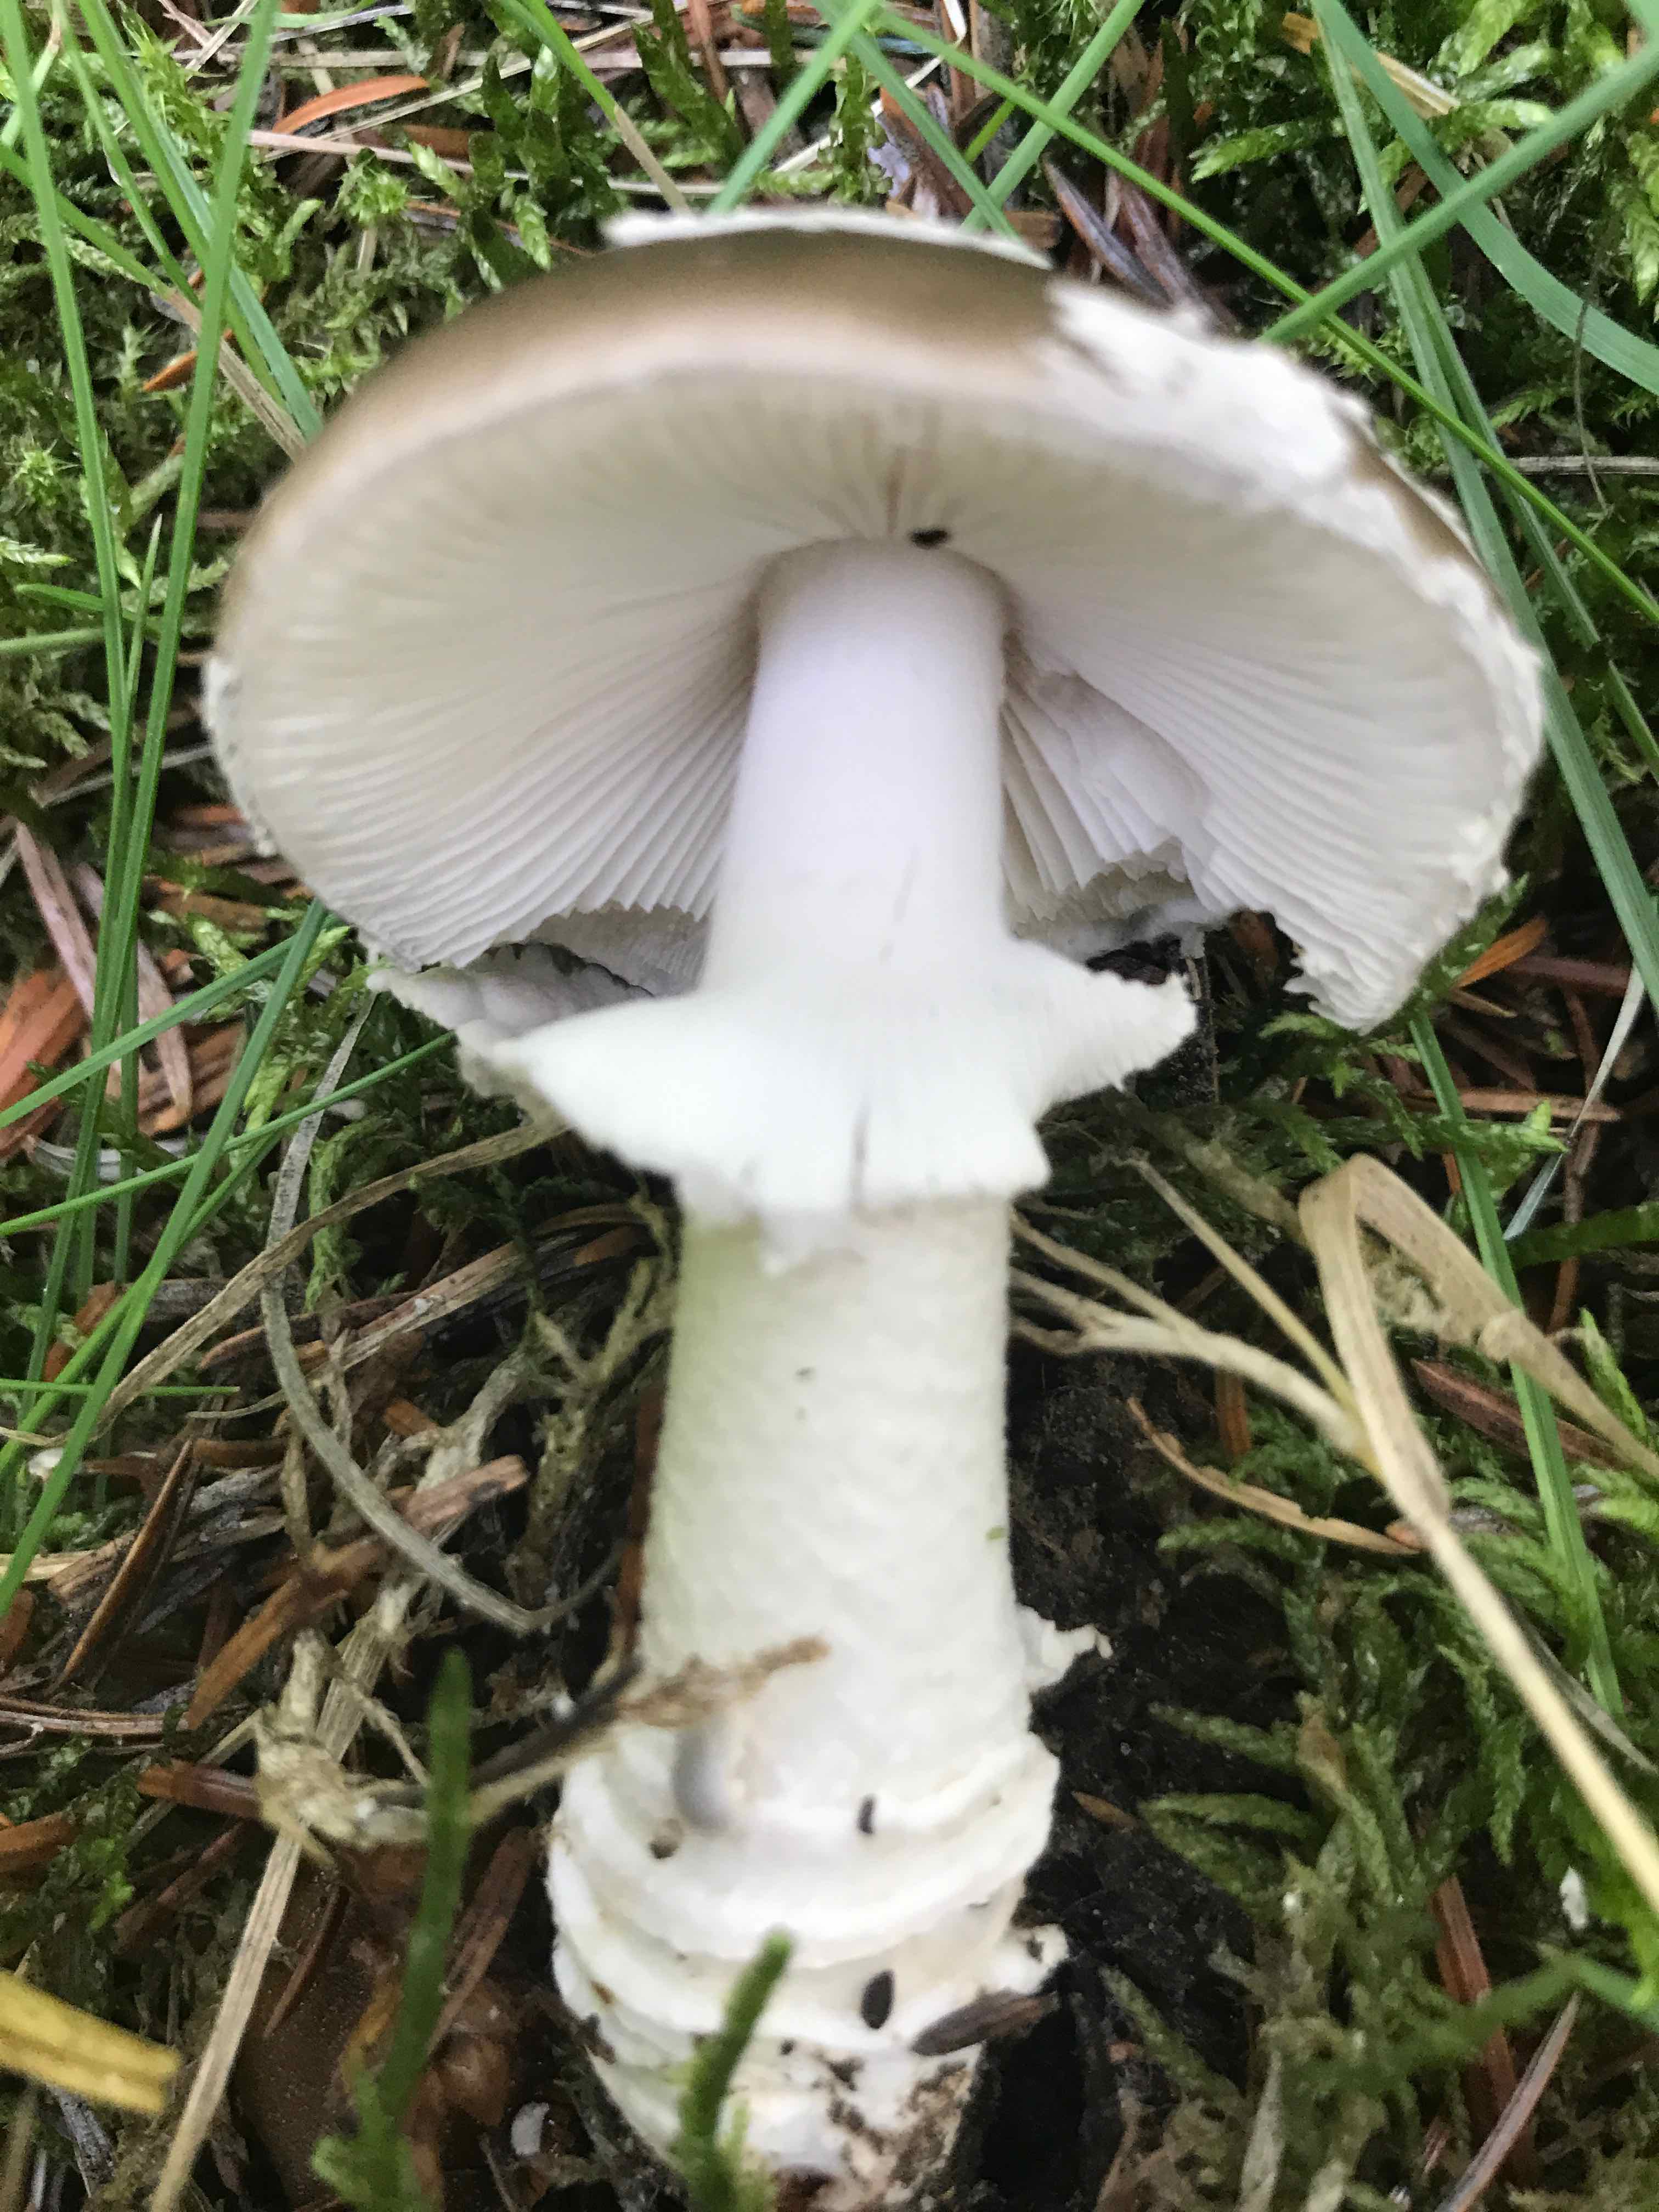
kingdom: Fungi
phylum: Basidiomycota
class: Agaricomycetes
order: Agaricales
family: Amanitaceae
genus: Amanita
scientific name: Amanita
